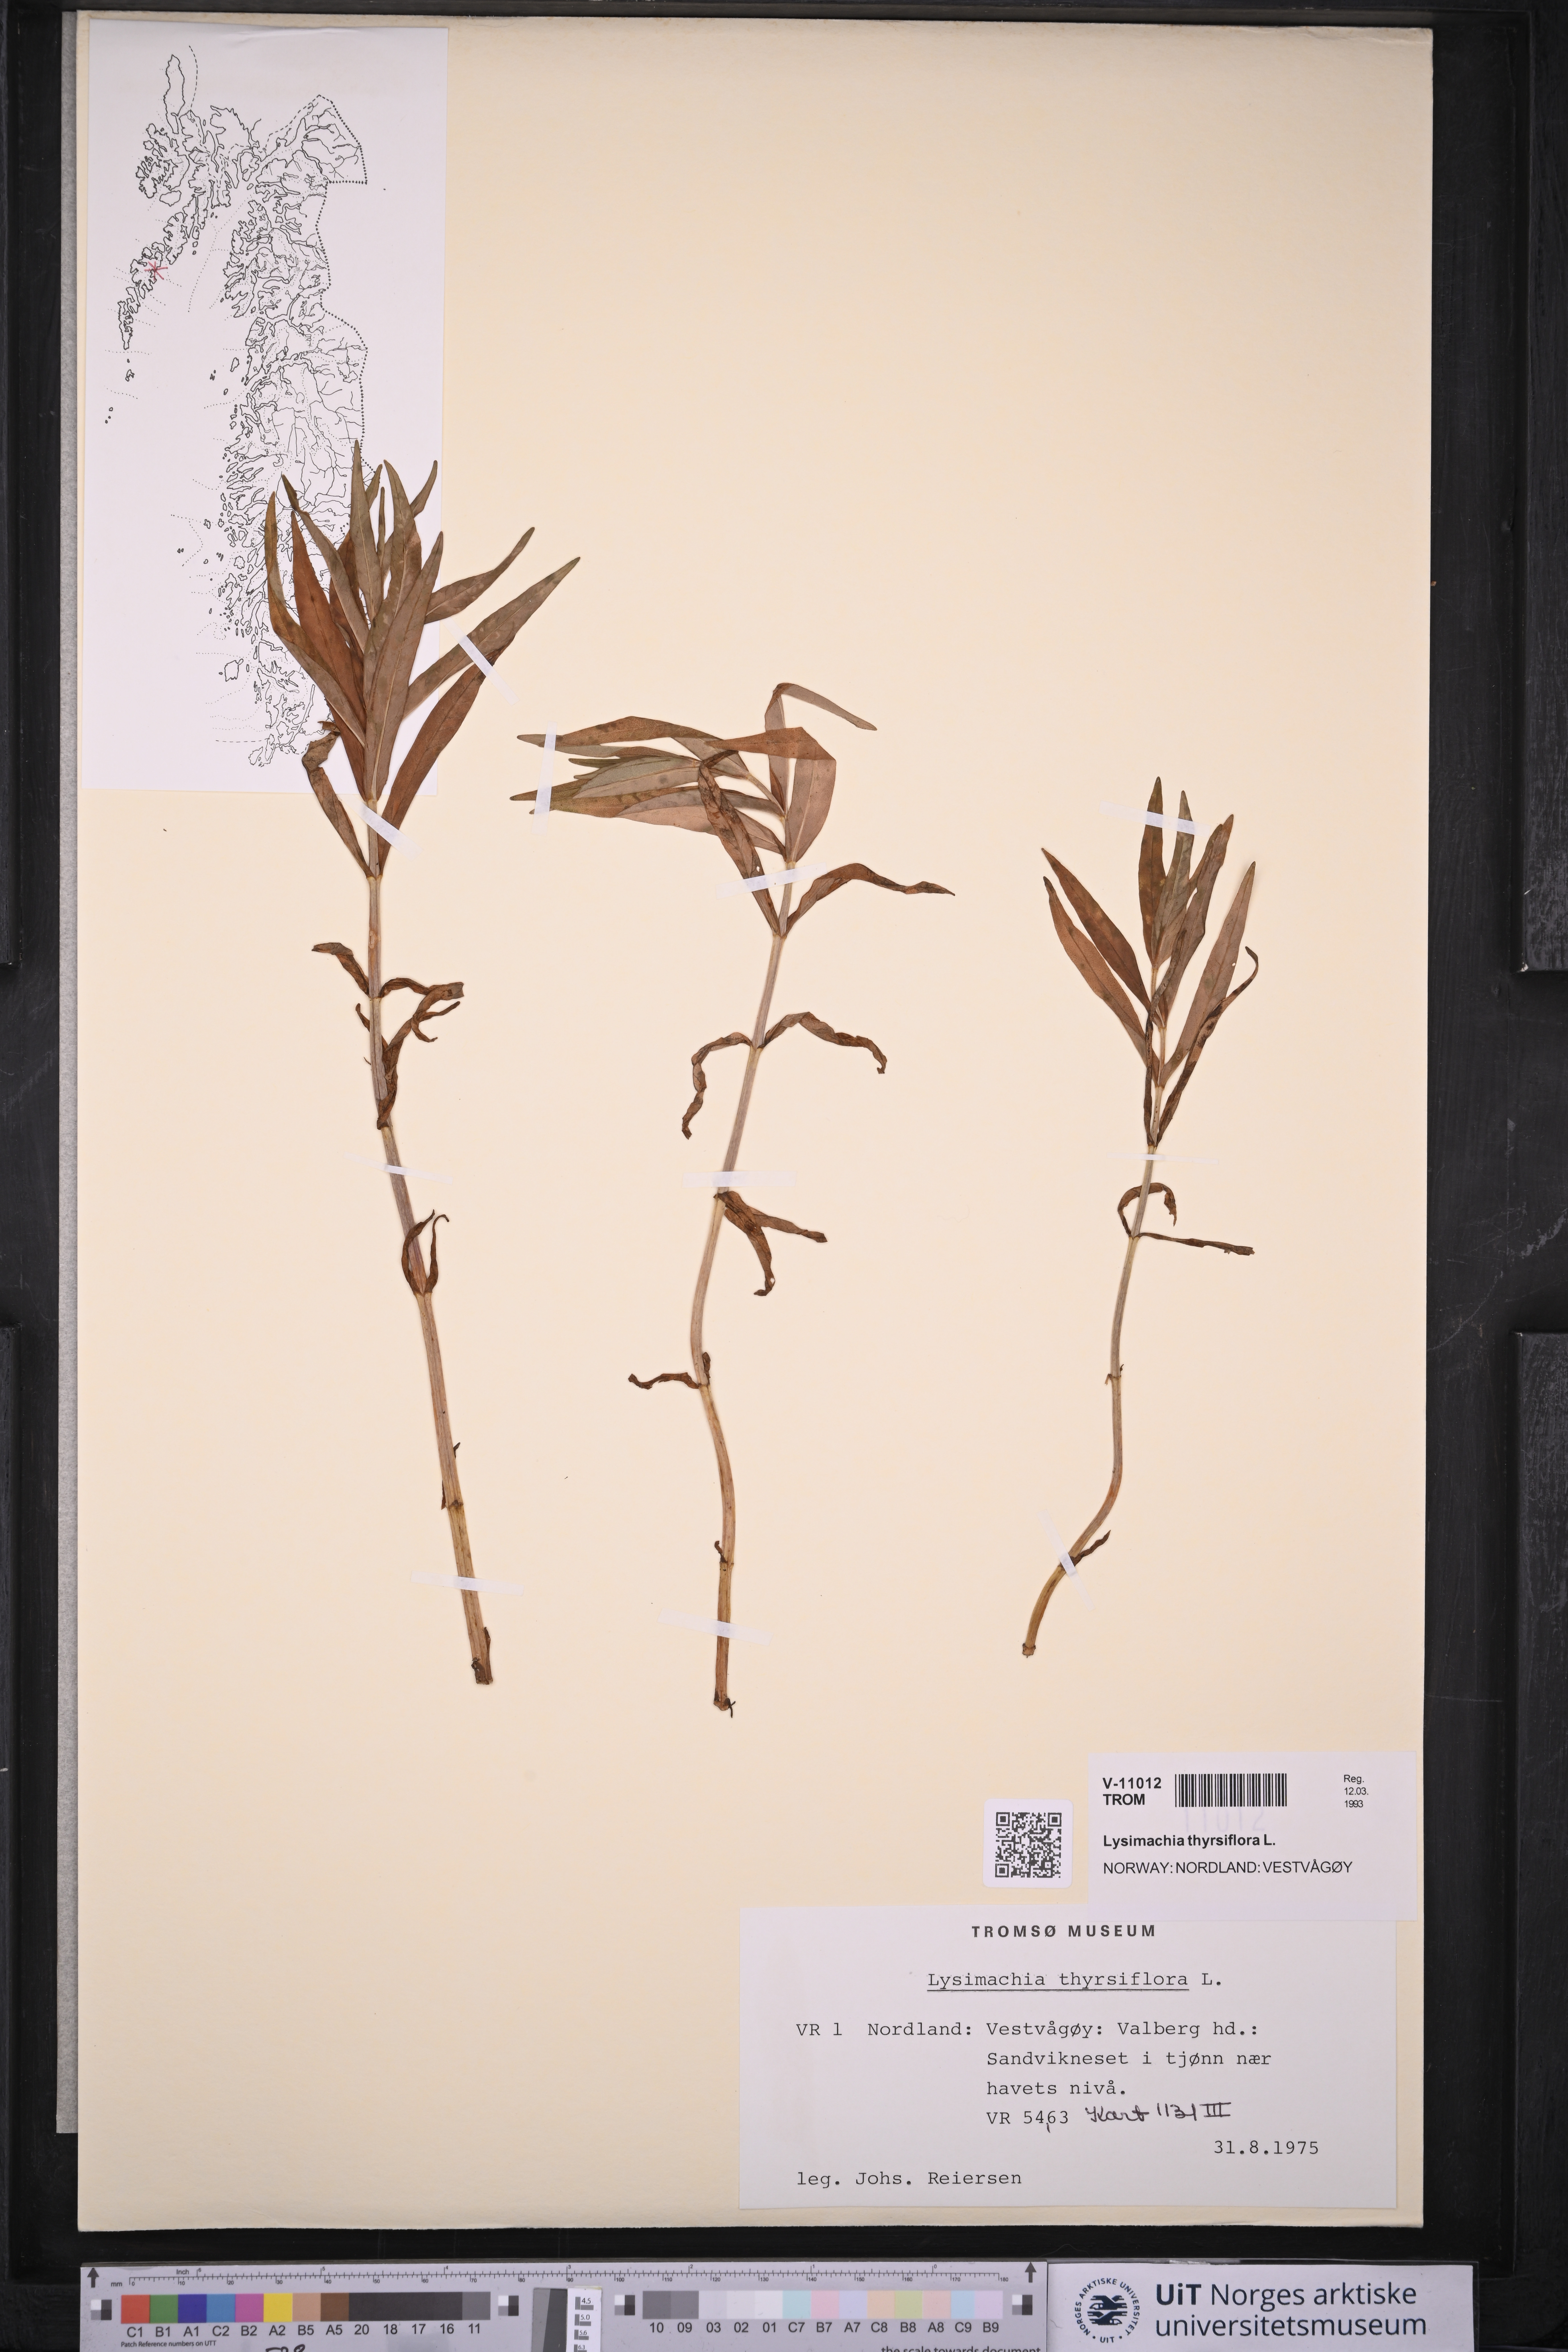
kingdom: Plantae
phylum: Tracheophyta
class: Magnoliopsida
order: Ericales
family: Primulaceae
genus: Lysimachia
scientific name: Lysimachia thyrsiflora
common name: Tufted loosestrife
